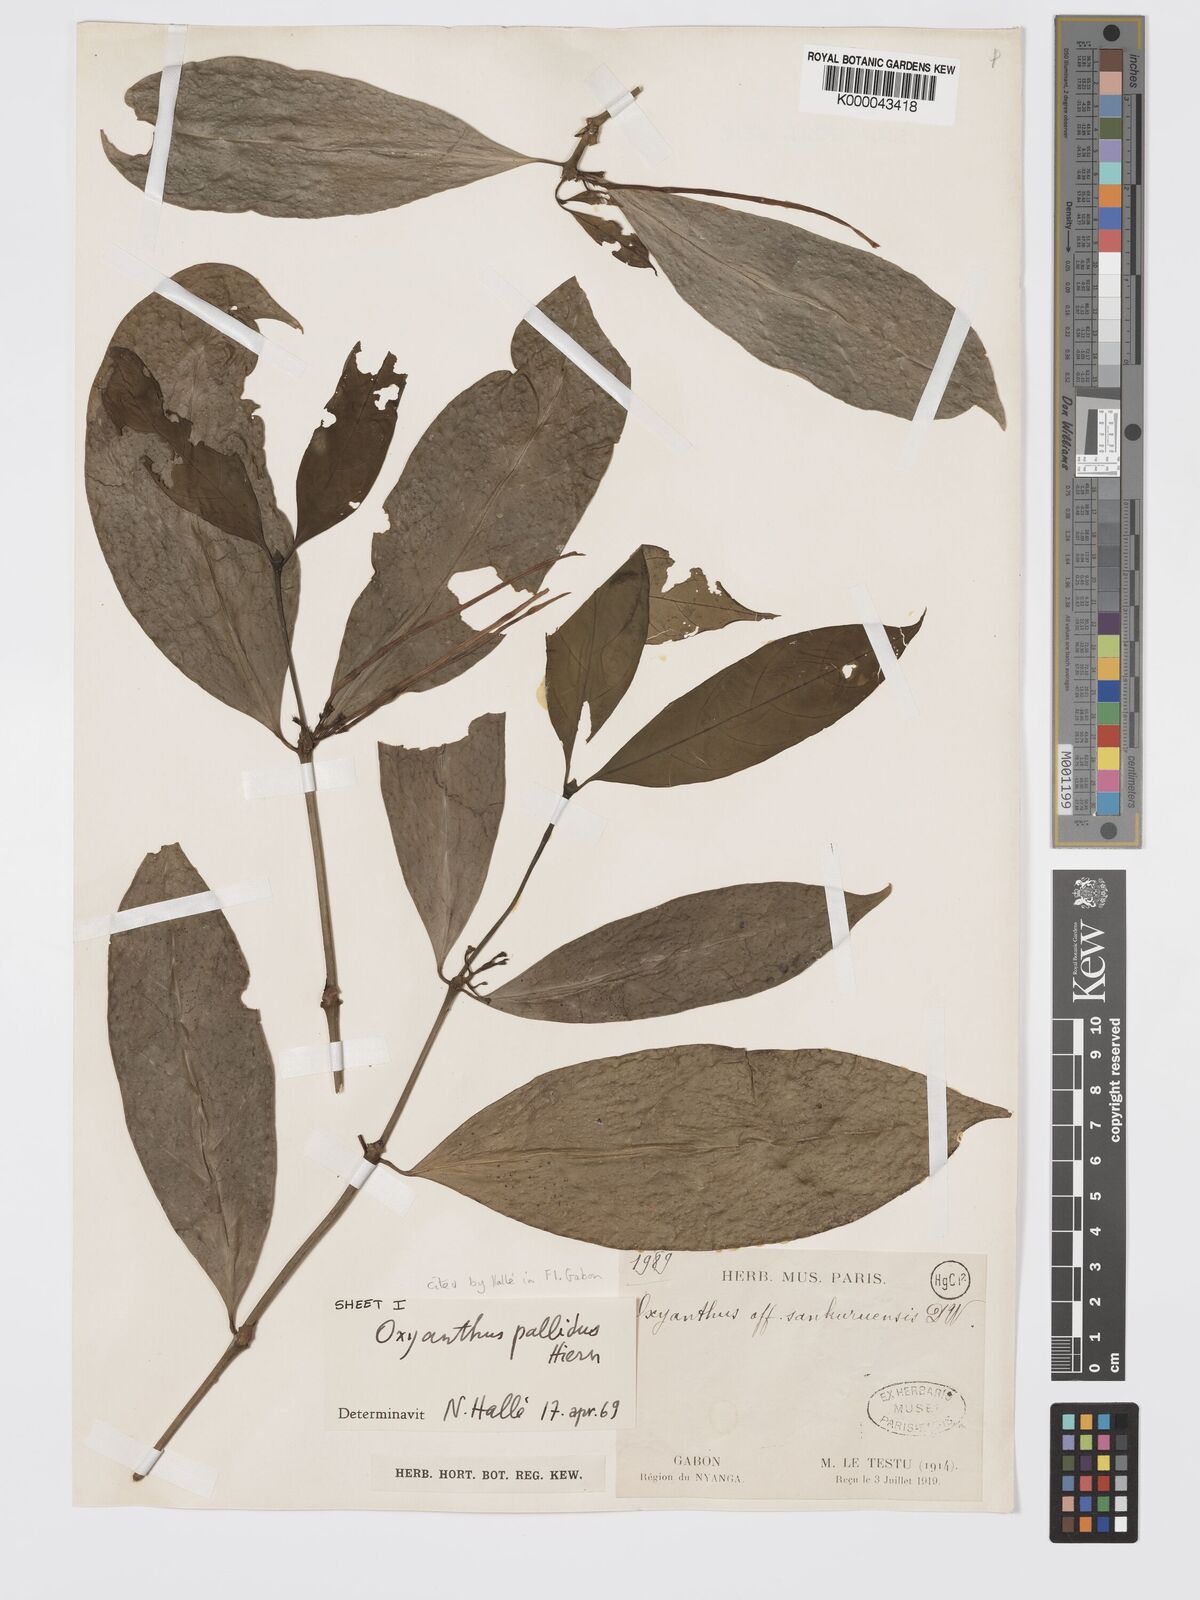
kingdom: Plantae
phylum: Tracheophyta
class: Magnoliopsida
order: Gentianales
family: Rubiaceae
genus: Oxyanthus
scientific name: Oxyanthus pallidus
